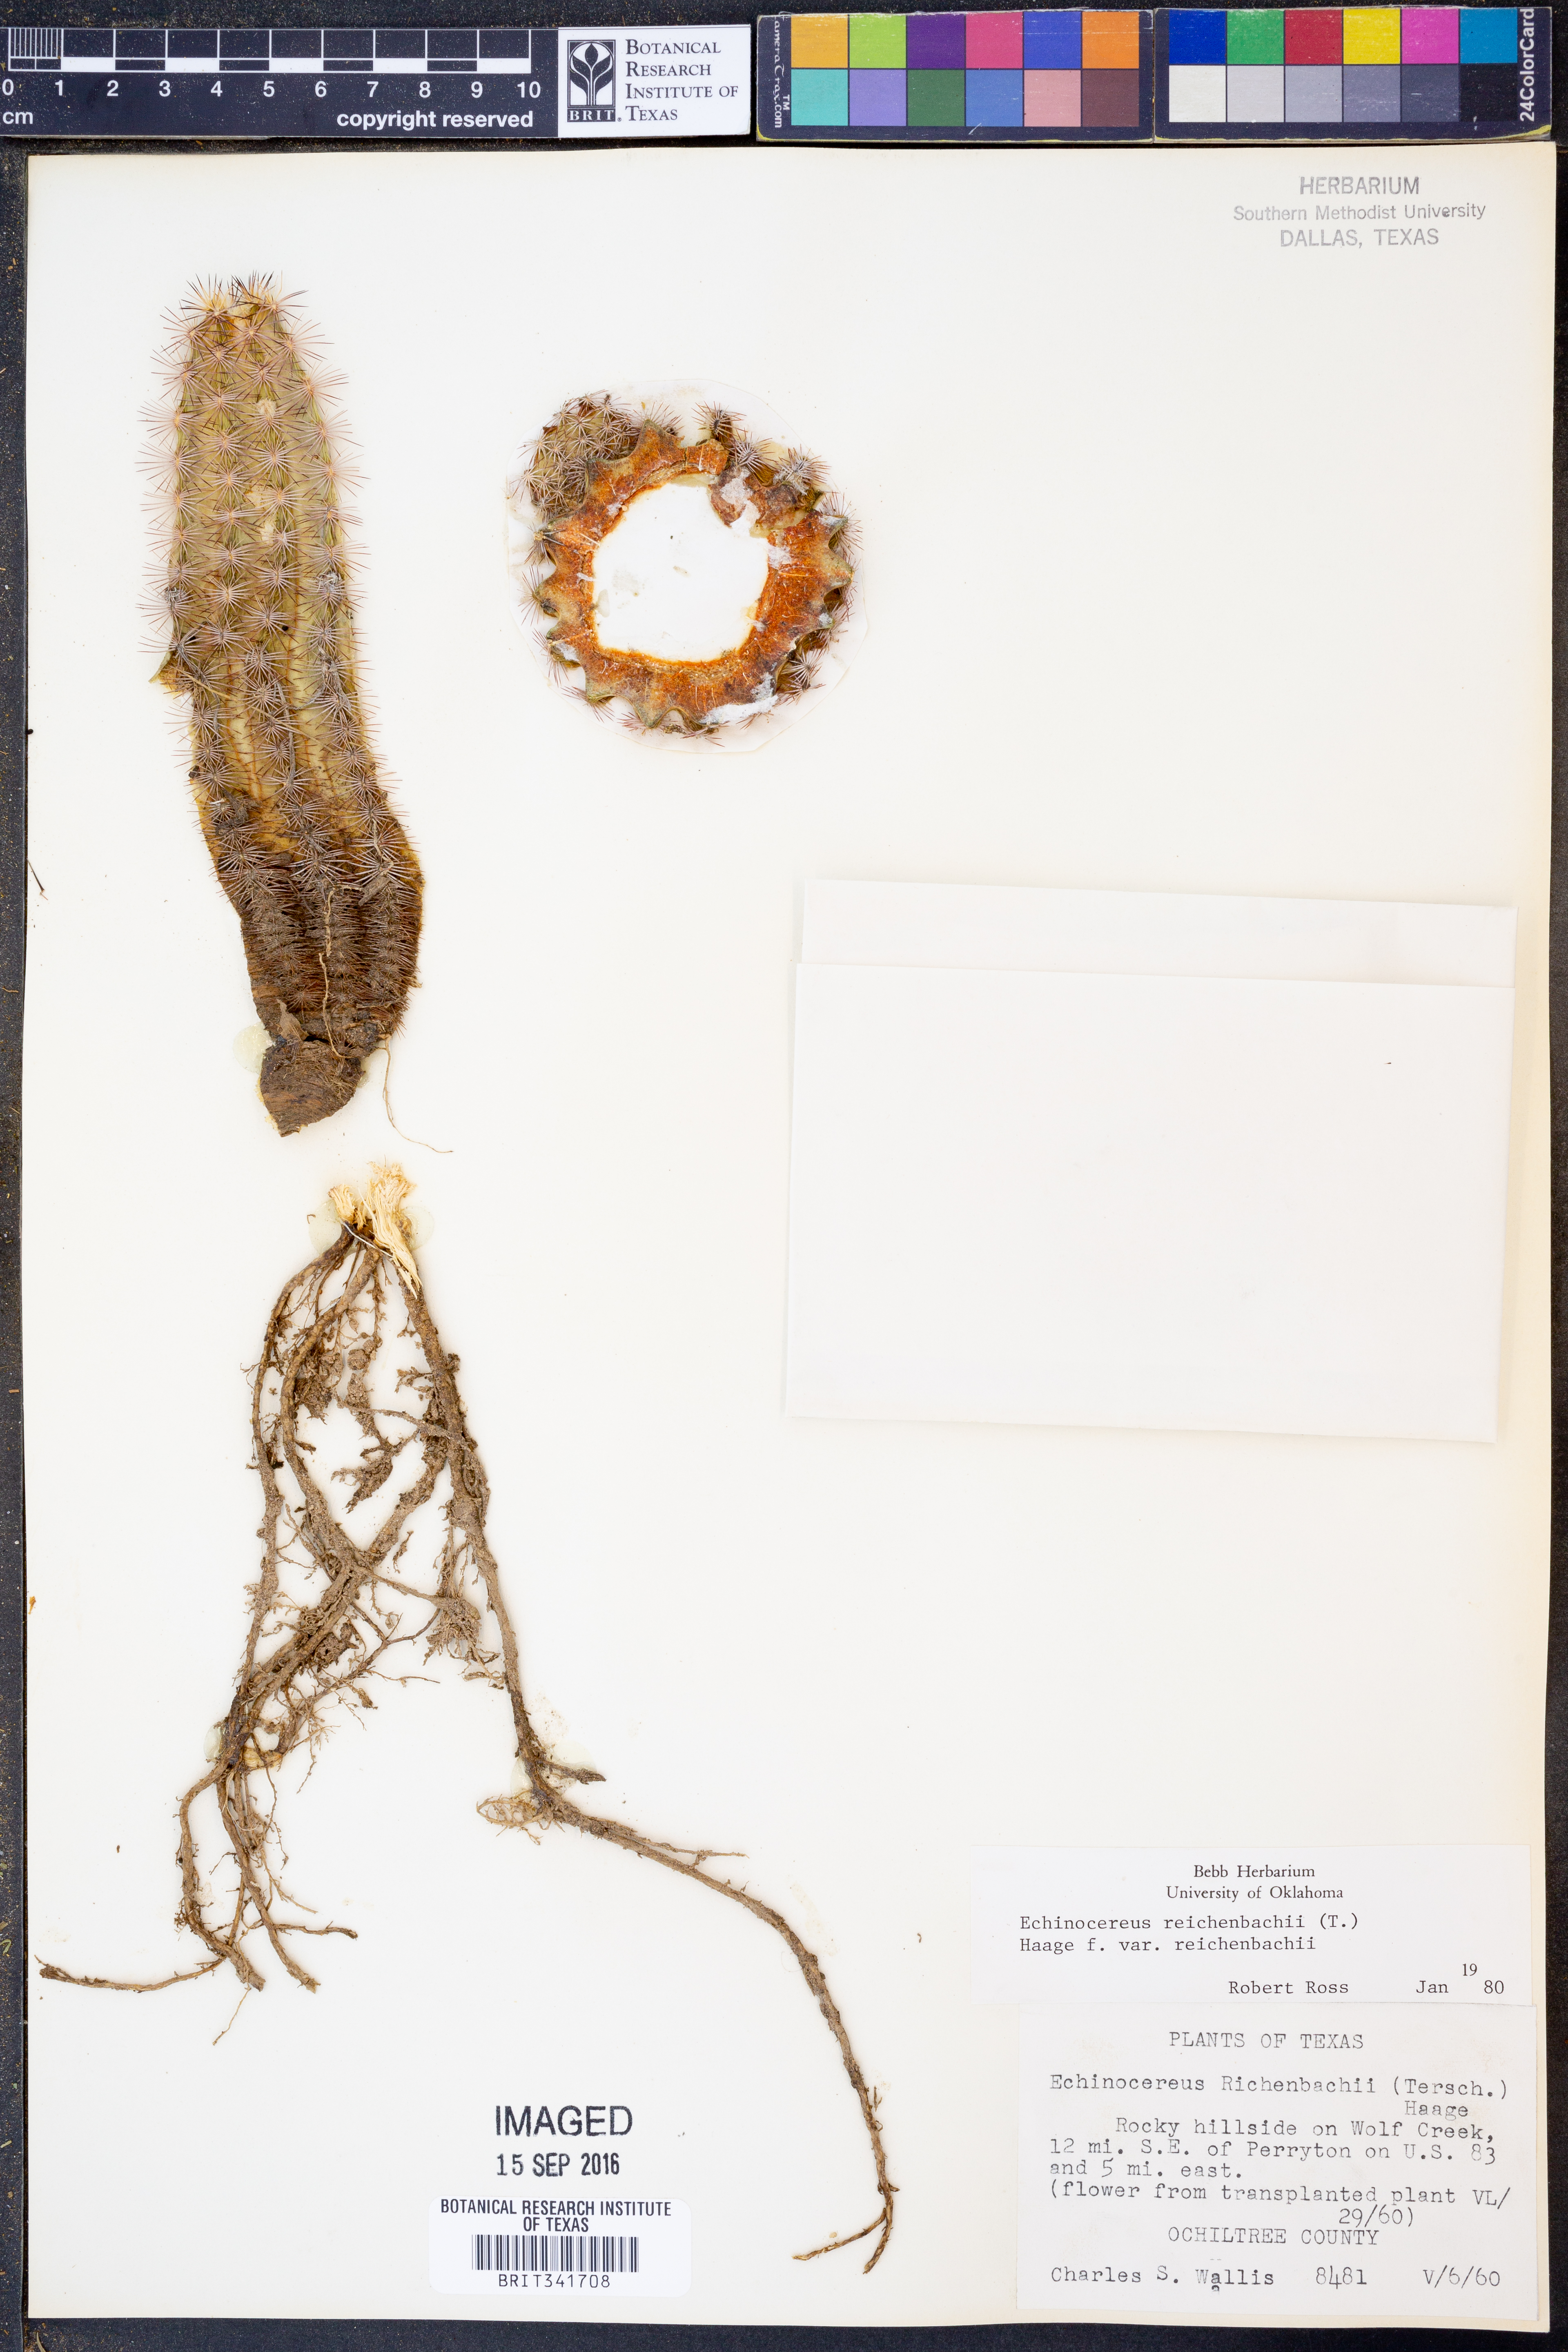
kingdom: Plantae
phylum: Tracheophyta
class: Magnoliopsida
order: Caryophyllales
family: Cactaceae
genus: Echinocereus
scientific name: Echinocereus reichenbachii
